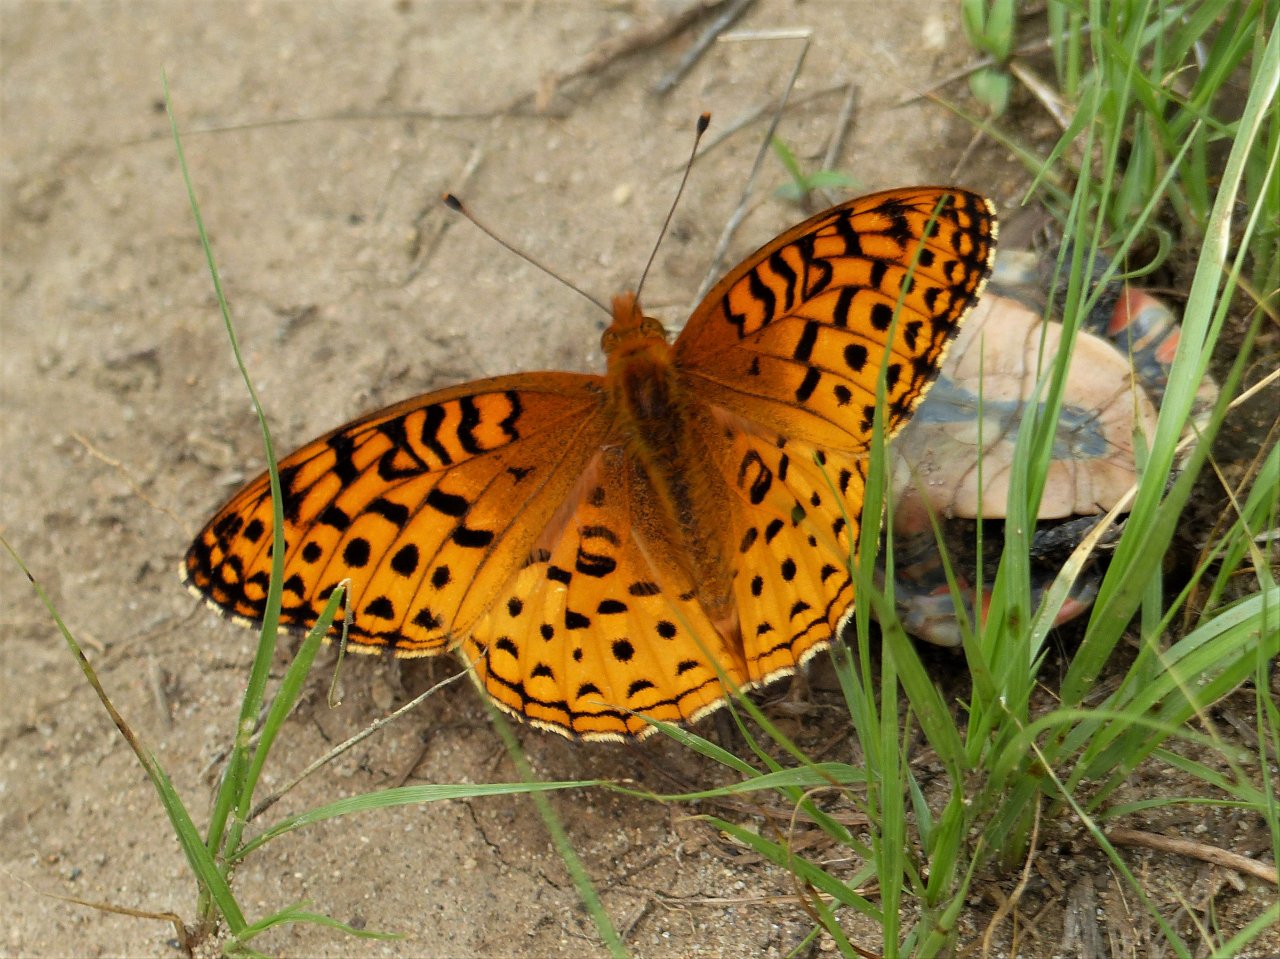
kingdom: Animalia
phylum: Arthropoda
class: Insecta
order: Lepidoptera
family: Nymphalidae
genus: Speyeria
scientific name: Speyeria aphrodite
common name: Aphrodite Fritillary
